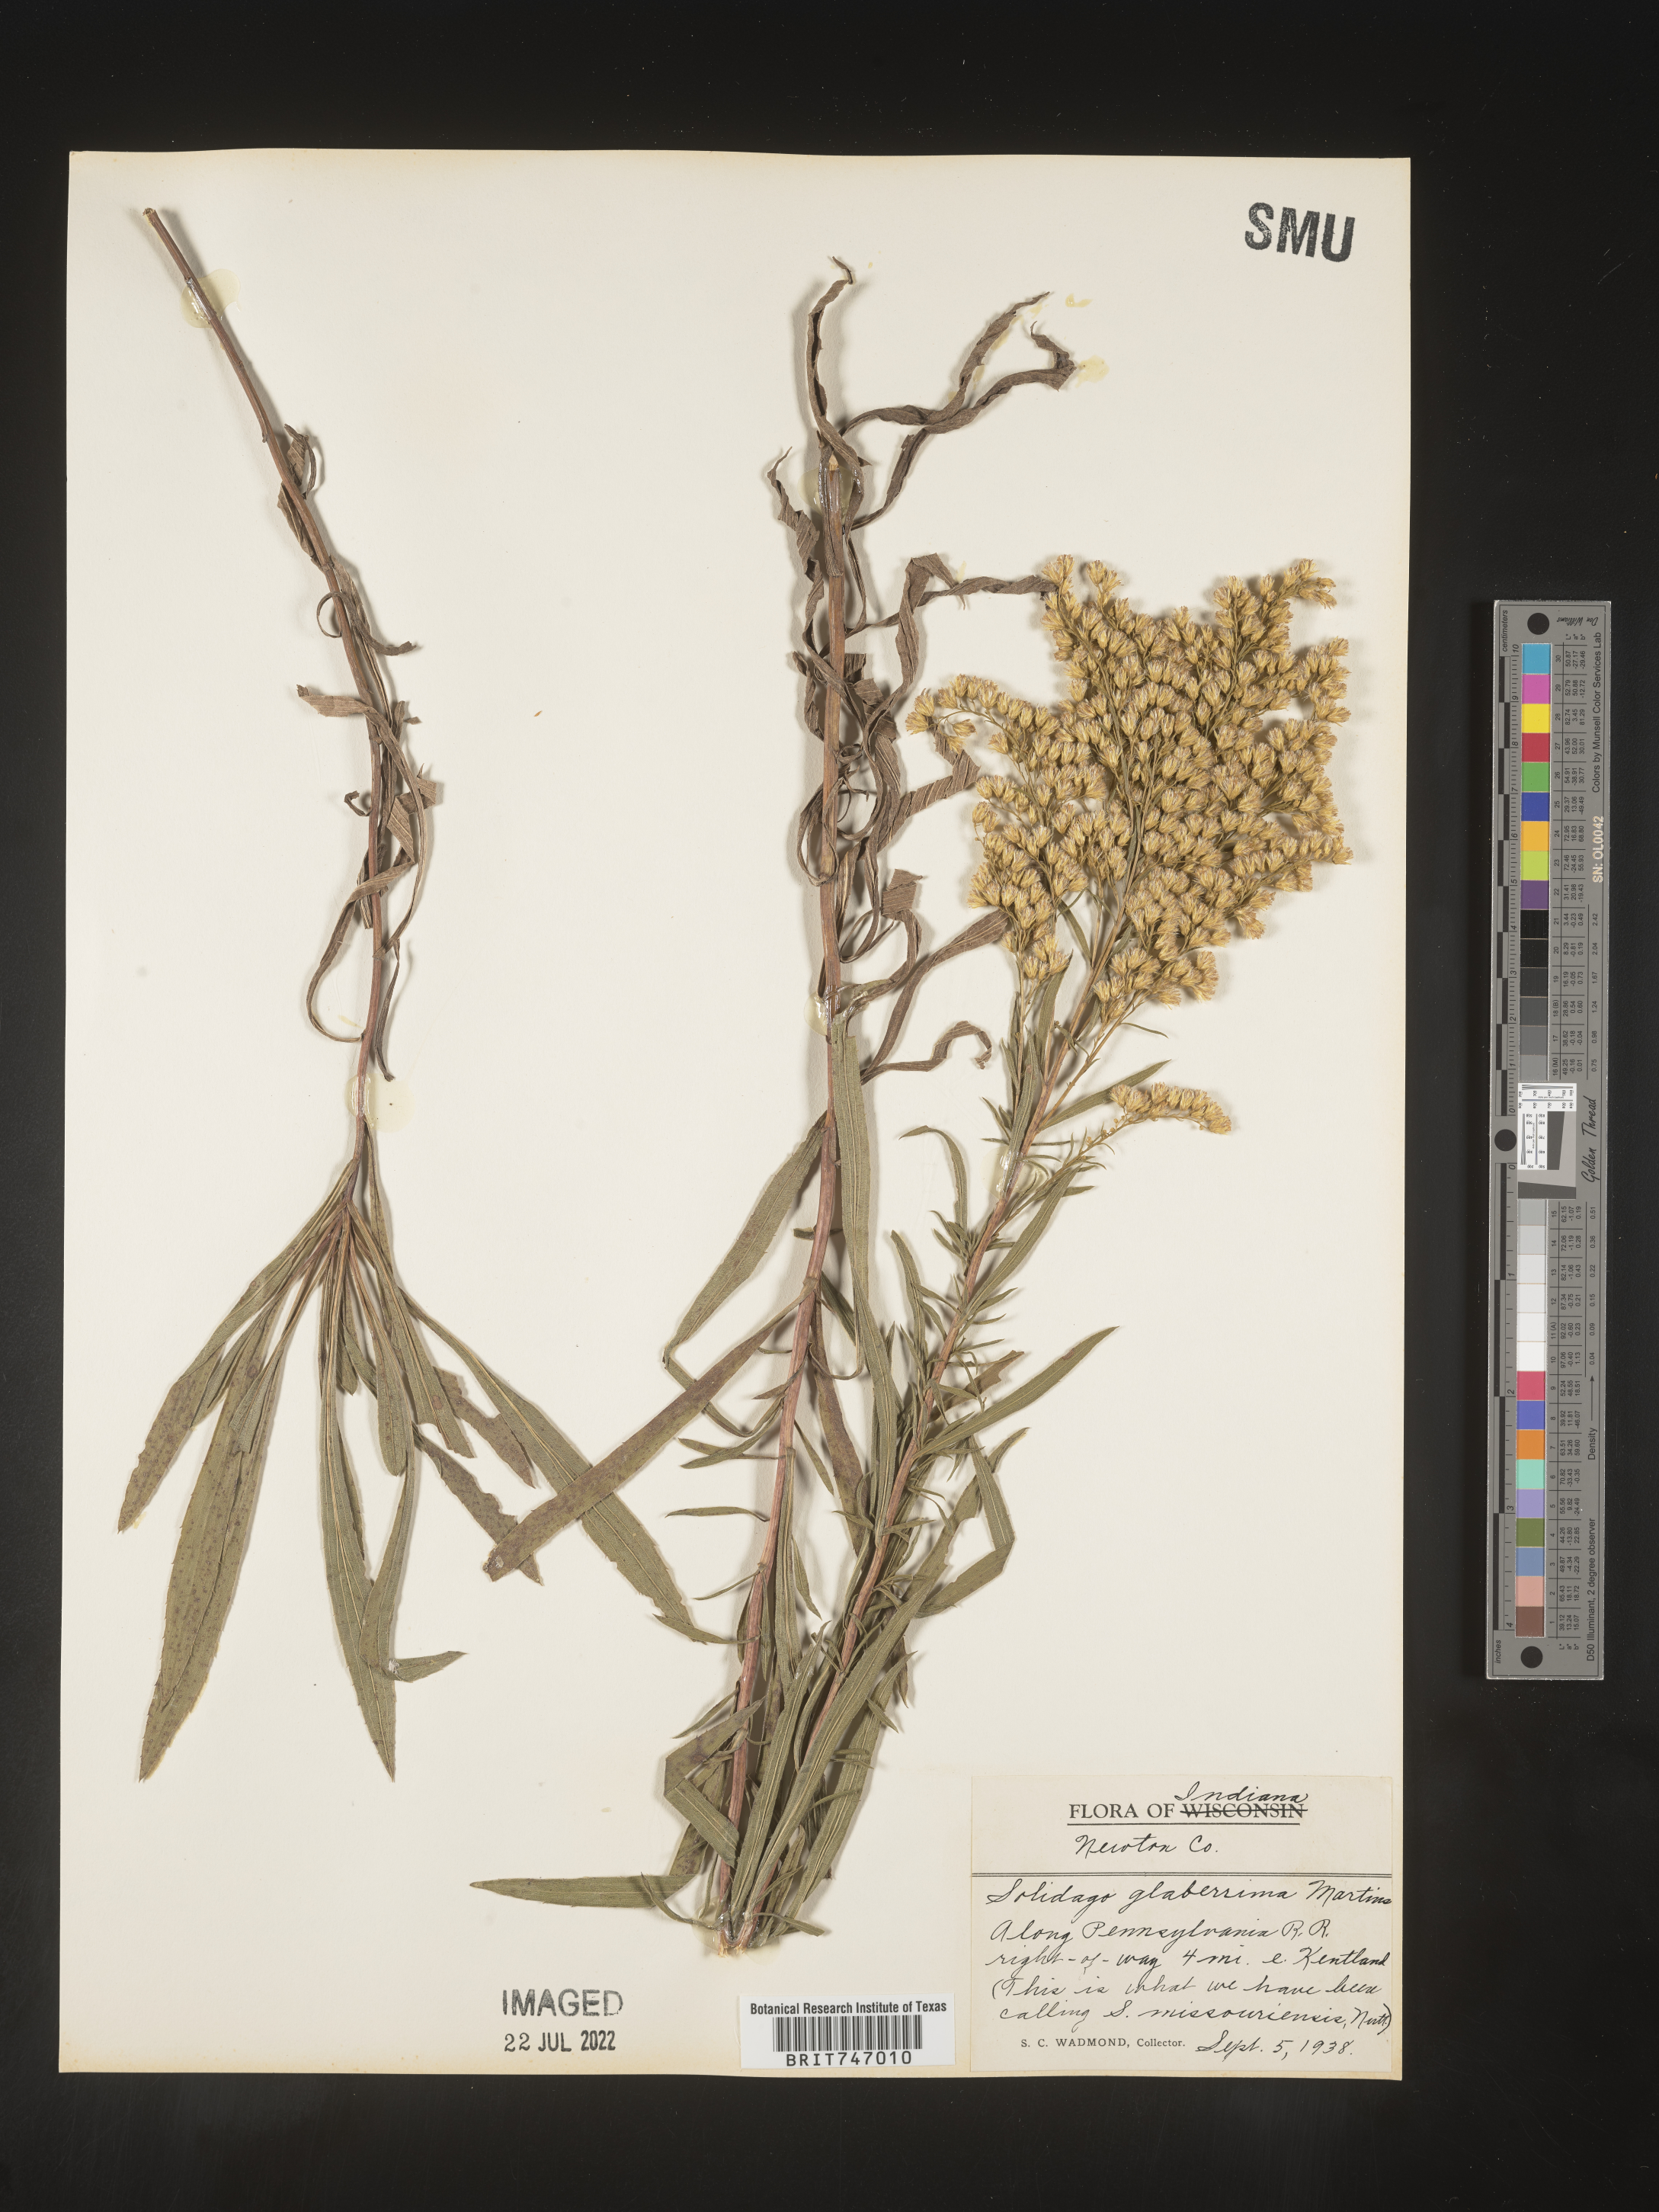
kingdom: Plantae
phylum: Tracheophyta
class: Magnoliopsida
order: Asterales
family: Asteraceae
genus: Solidago
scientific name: Solidago missouriensis
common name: Prairie goldenrod
